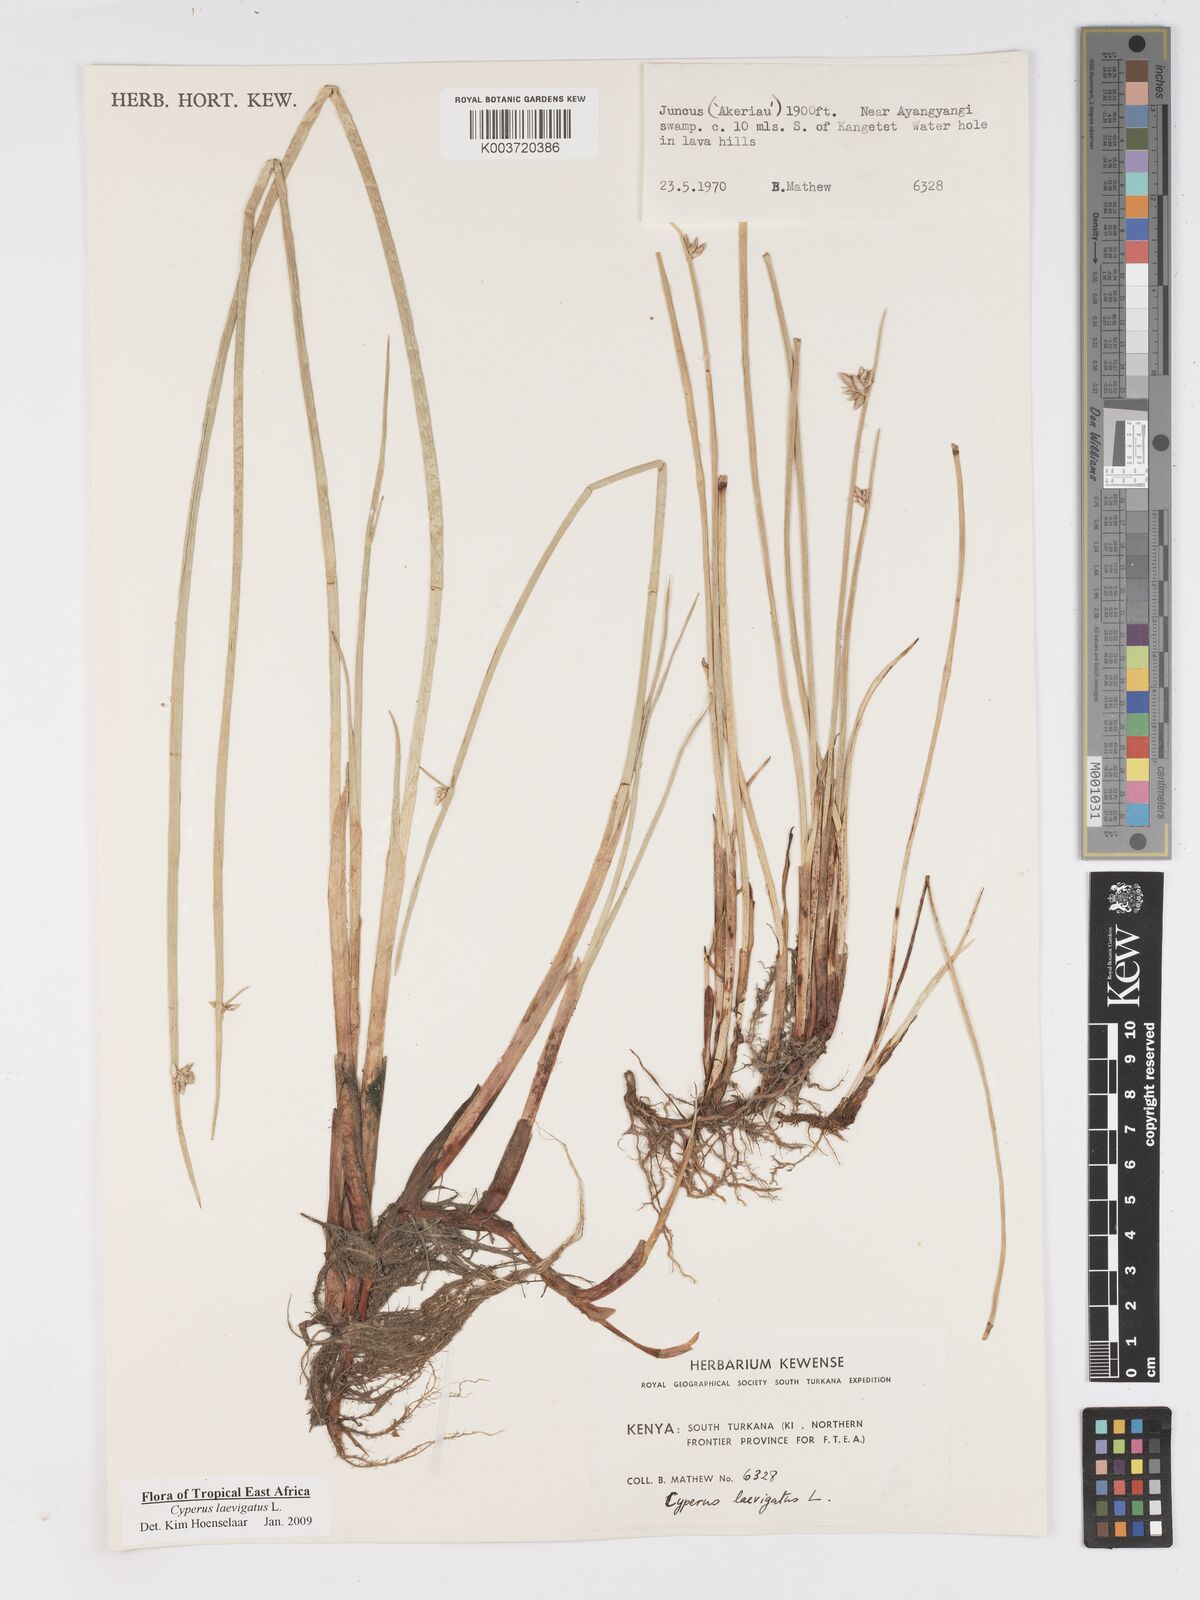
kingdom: Plantae
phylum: Tracheophyta
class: Liliopsida
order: Poales
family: Cyperaceae
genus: Cyperus
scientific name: Cyperus laevigatus
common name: Smooth flat sedge
